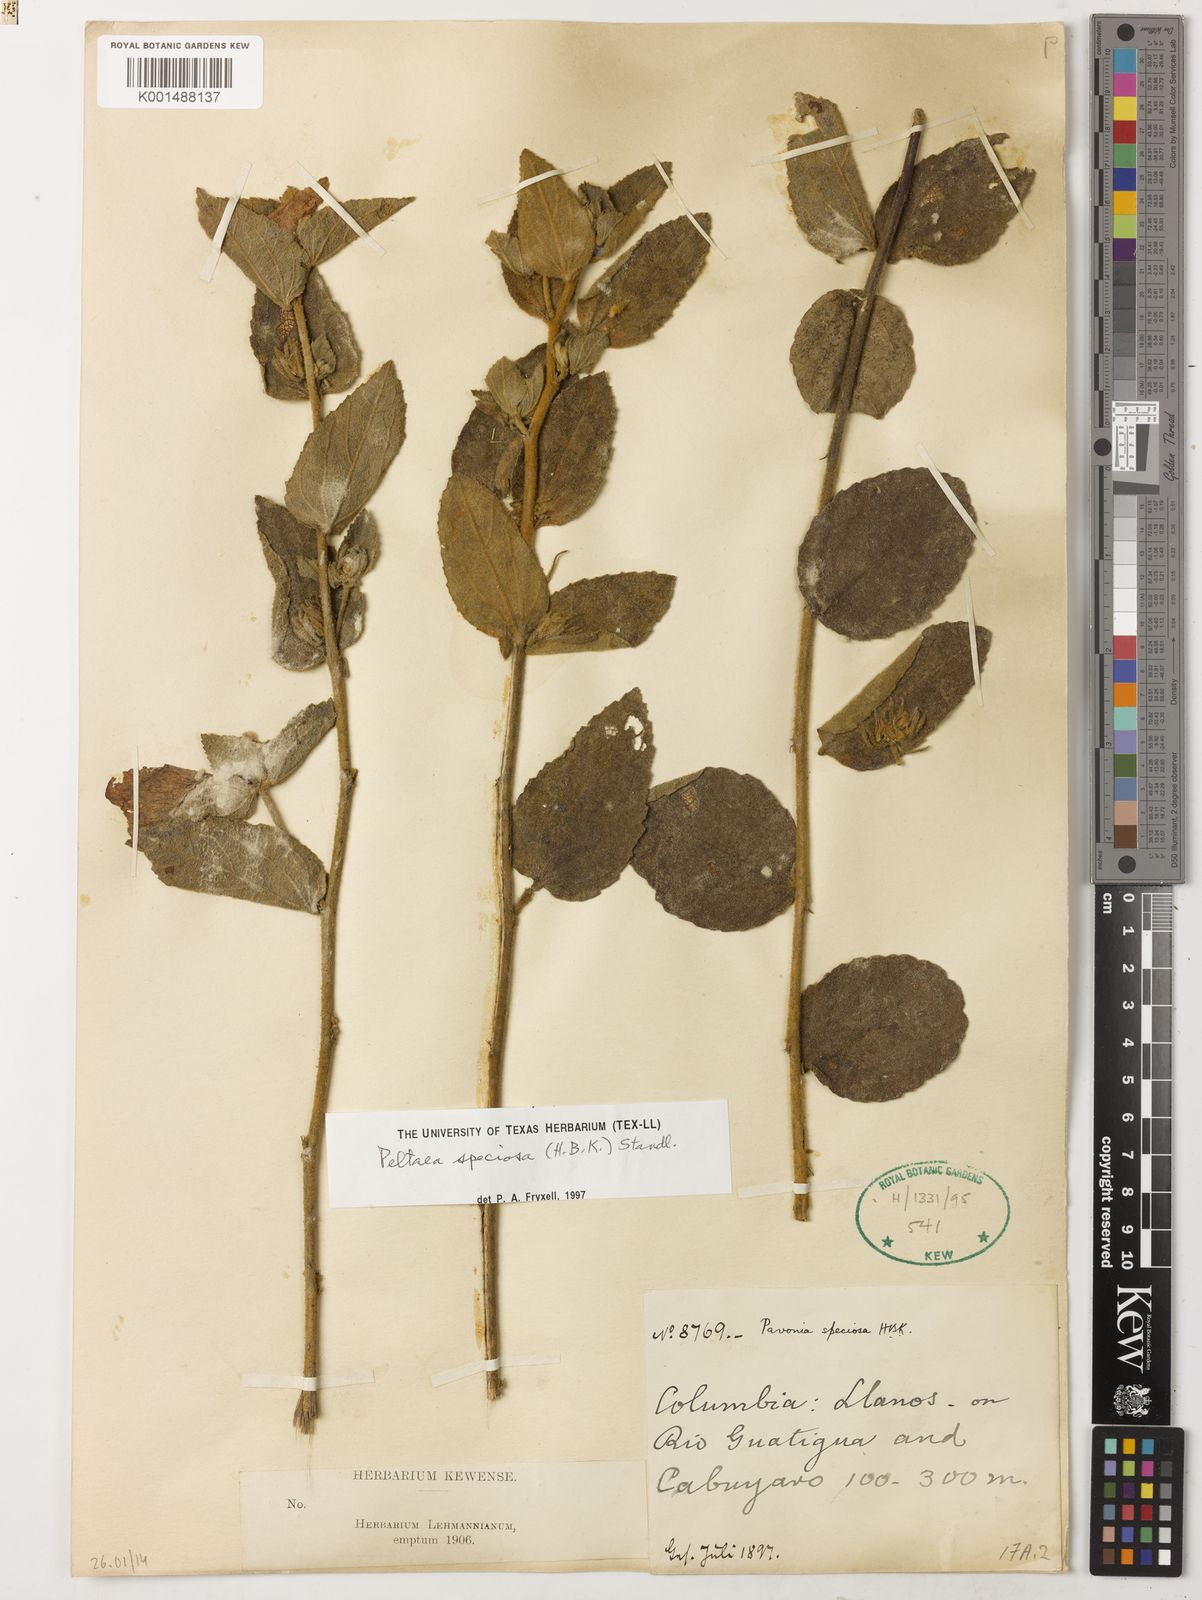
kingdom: Plantae
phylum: Tracheophyta
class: Magnoliopsida
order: Malvales
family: Malvaceae
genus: Peltaea
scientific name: Peltaea speciosa
